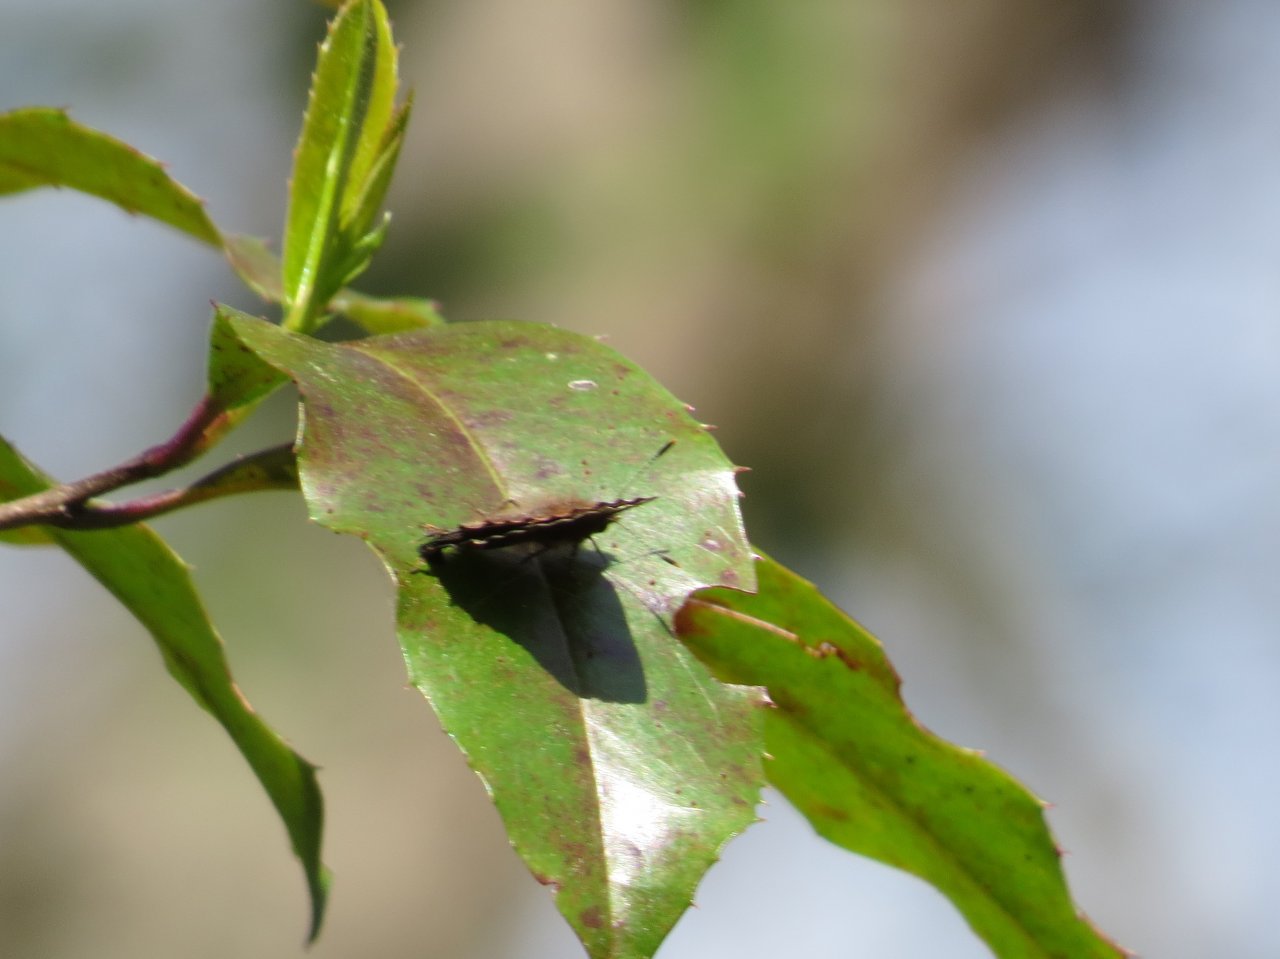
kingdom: Animalia
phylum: Arthropoda
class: Insecta
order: Lepidoptera
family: Lycaenidae
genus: Incisalia
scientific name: Incisalia henrici
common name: Henry's Elfin
